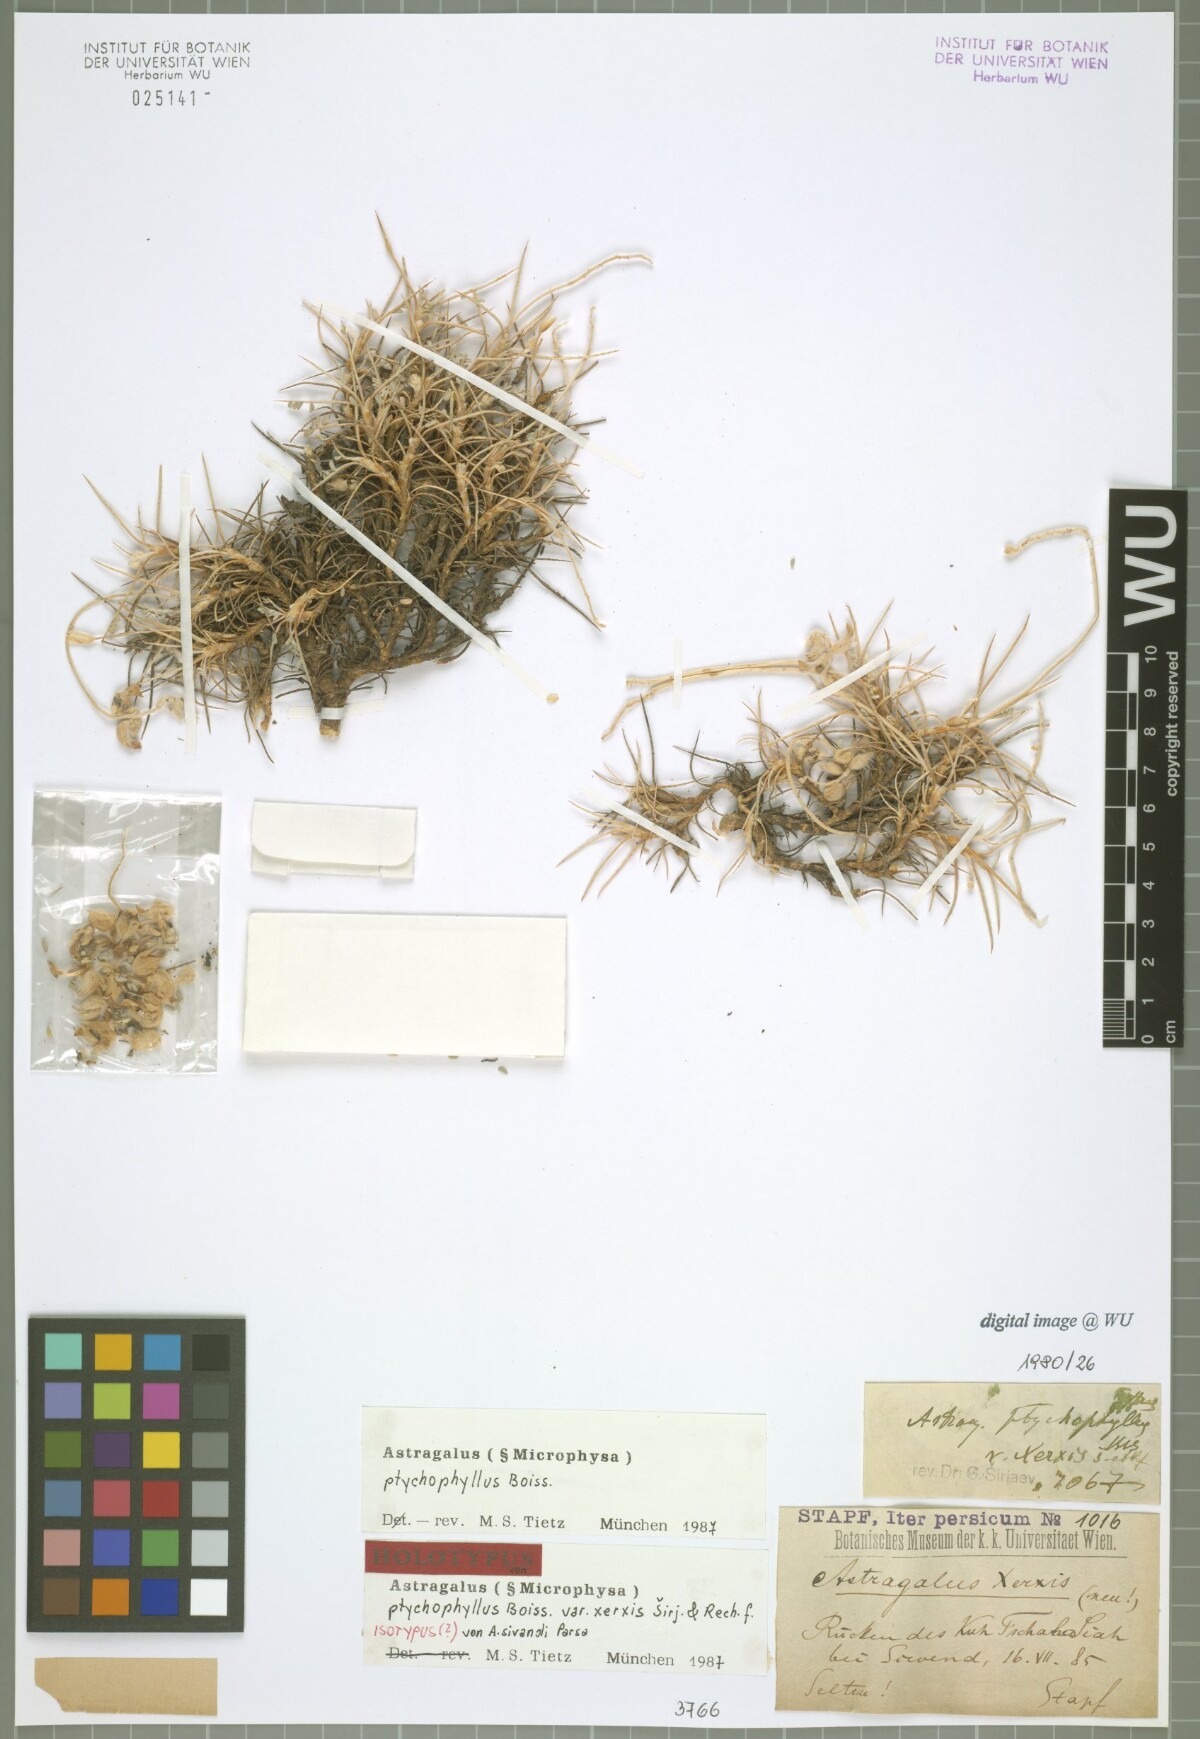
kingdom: Plantae
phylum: Tracheophyta
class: Magnoliopsida
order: Fabales
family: Fabaceae
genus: Astragalus
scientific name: Astragalus ptychophyllus
